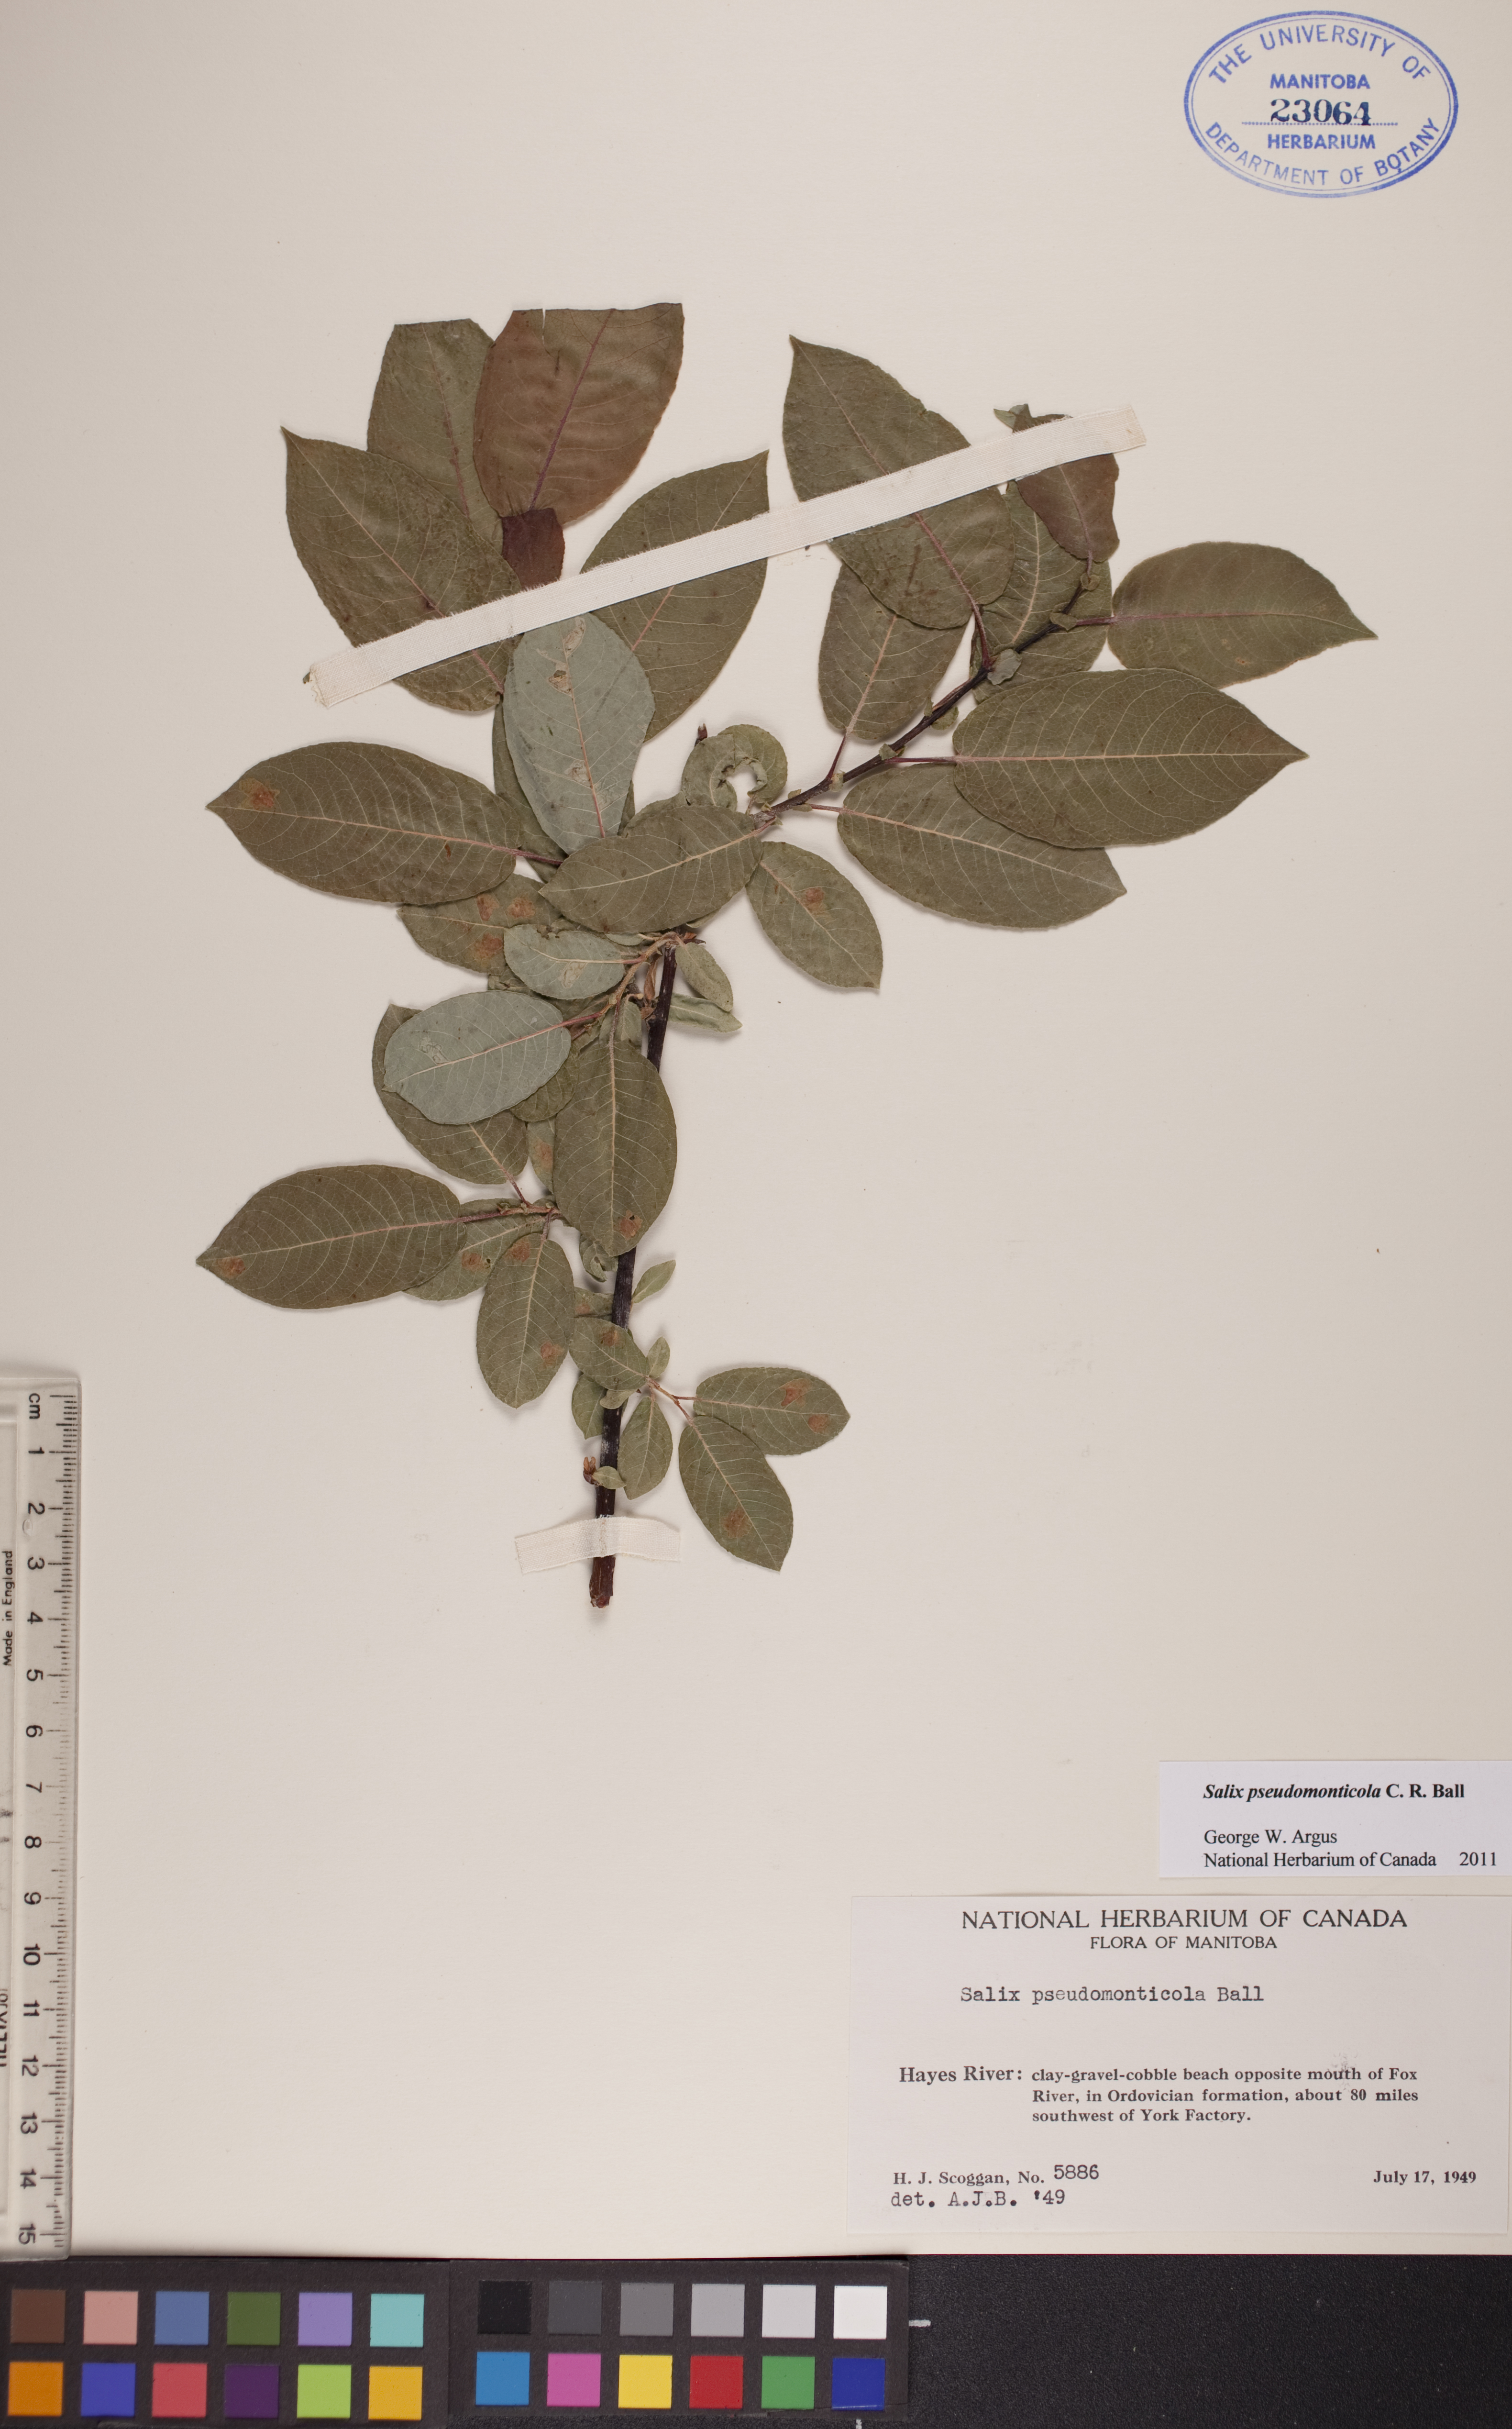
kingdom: Plantae
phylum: Tracheophyta
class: Magnoliopsida
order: Malpighiales
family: Salicaceae
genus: Salix
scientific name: Salix pseudomonticola
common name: Cherry-leaved willow
